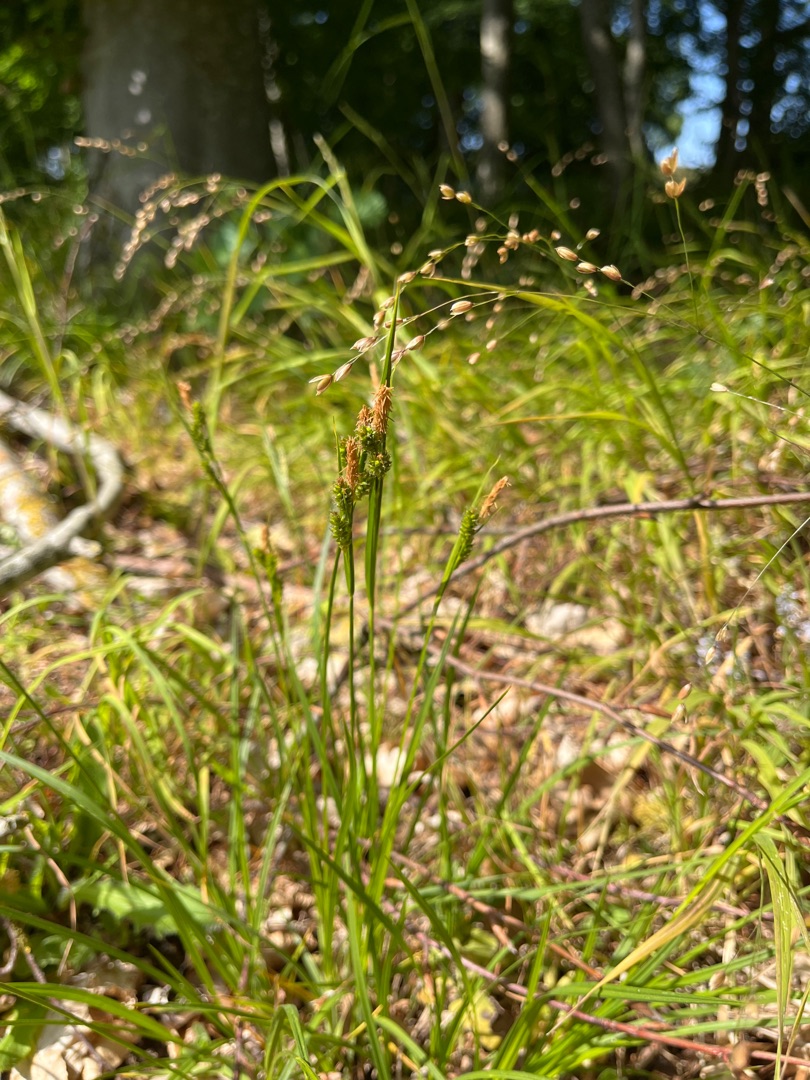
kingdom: Plantae
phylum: Tracheophyta
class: Liliopsida
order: Poales
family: Cyperaceae
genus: Carex
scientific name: Carex pallescens
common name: Bleg star
